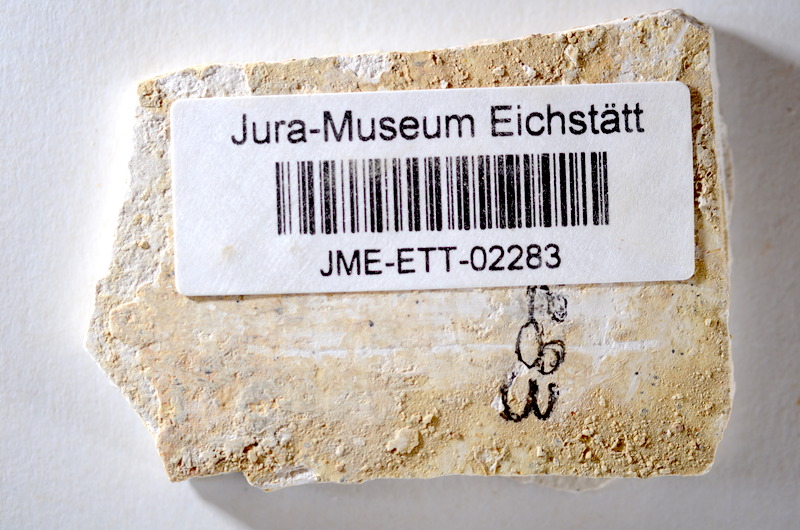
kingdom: Animalia
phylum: Chordata
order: Salmoniformes
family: Orthogonikleithridae
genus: Orthogonikleithrus
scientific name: Orthogonikleithrus hoelli
